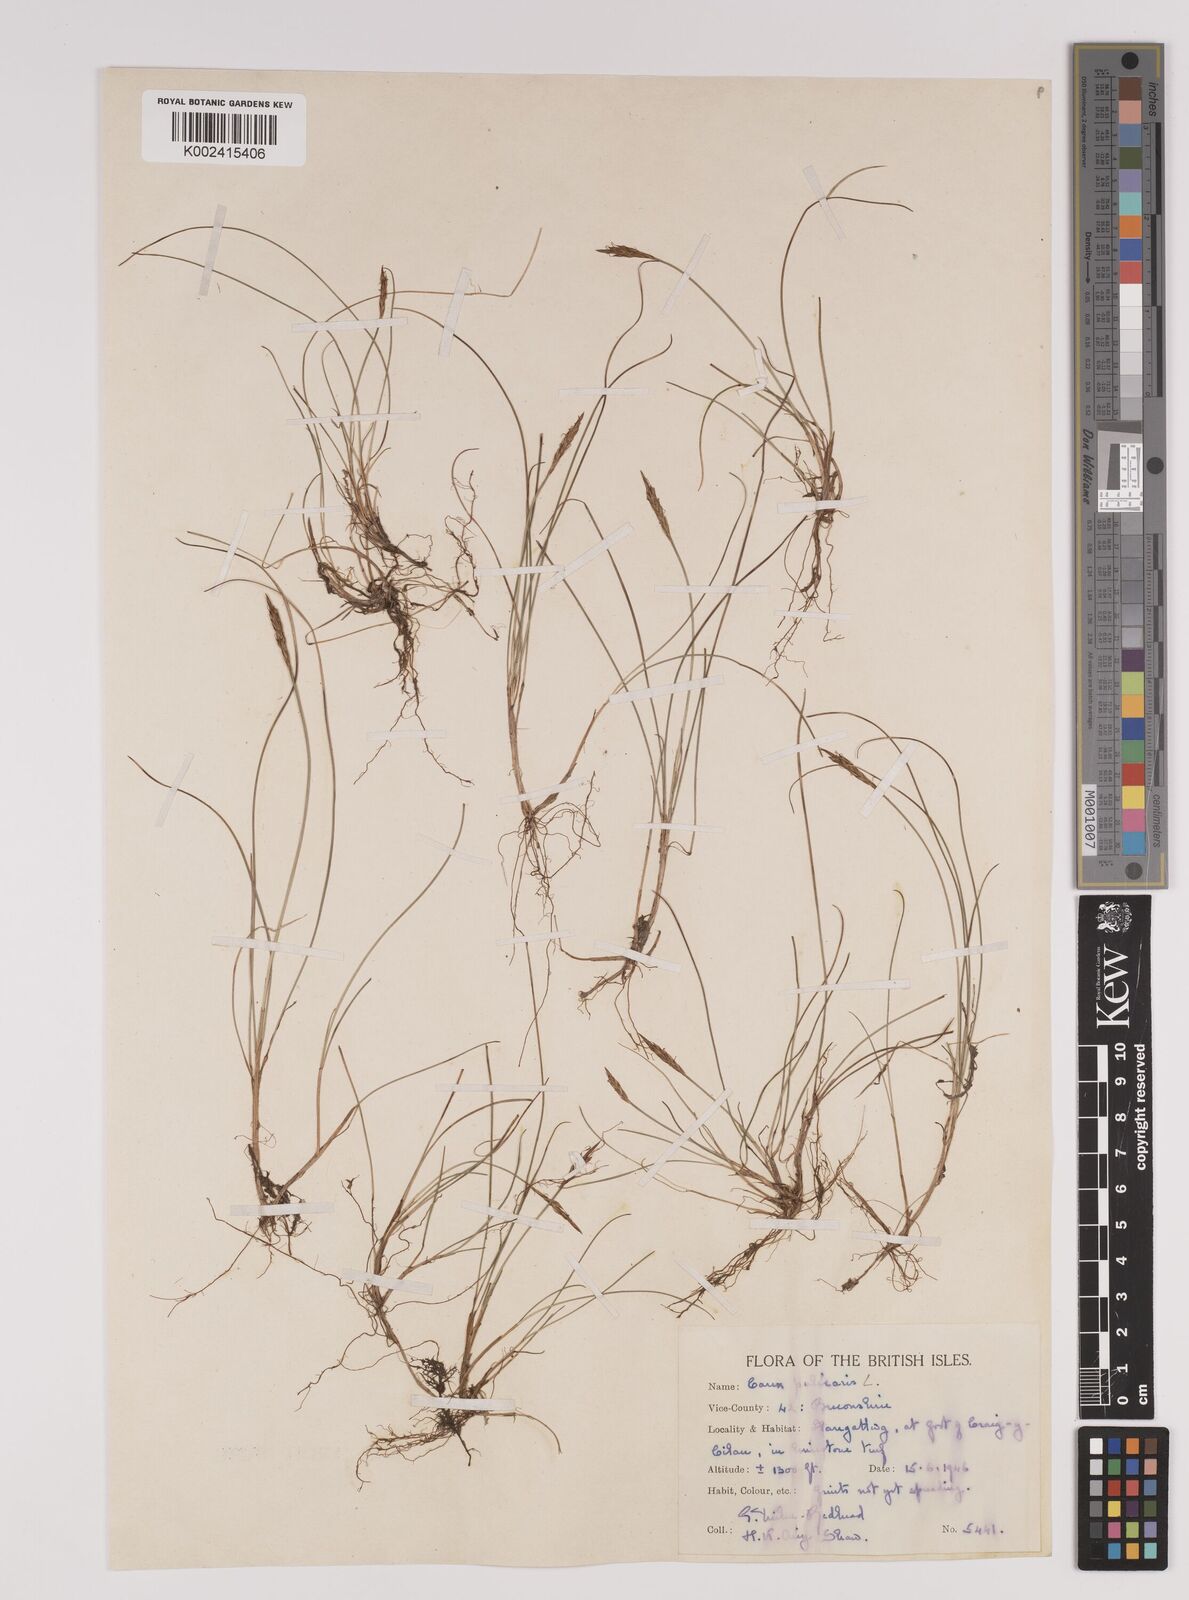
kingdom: Plantae
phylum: Tracheophyta
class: Liliopsida
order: Poales
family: Cyperaceae
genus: Carex
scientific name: Carex pulicaris
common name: Flea sedge
